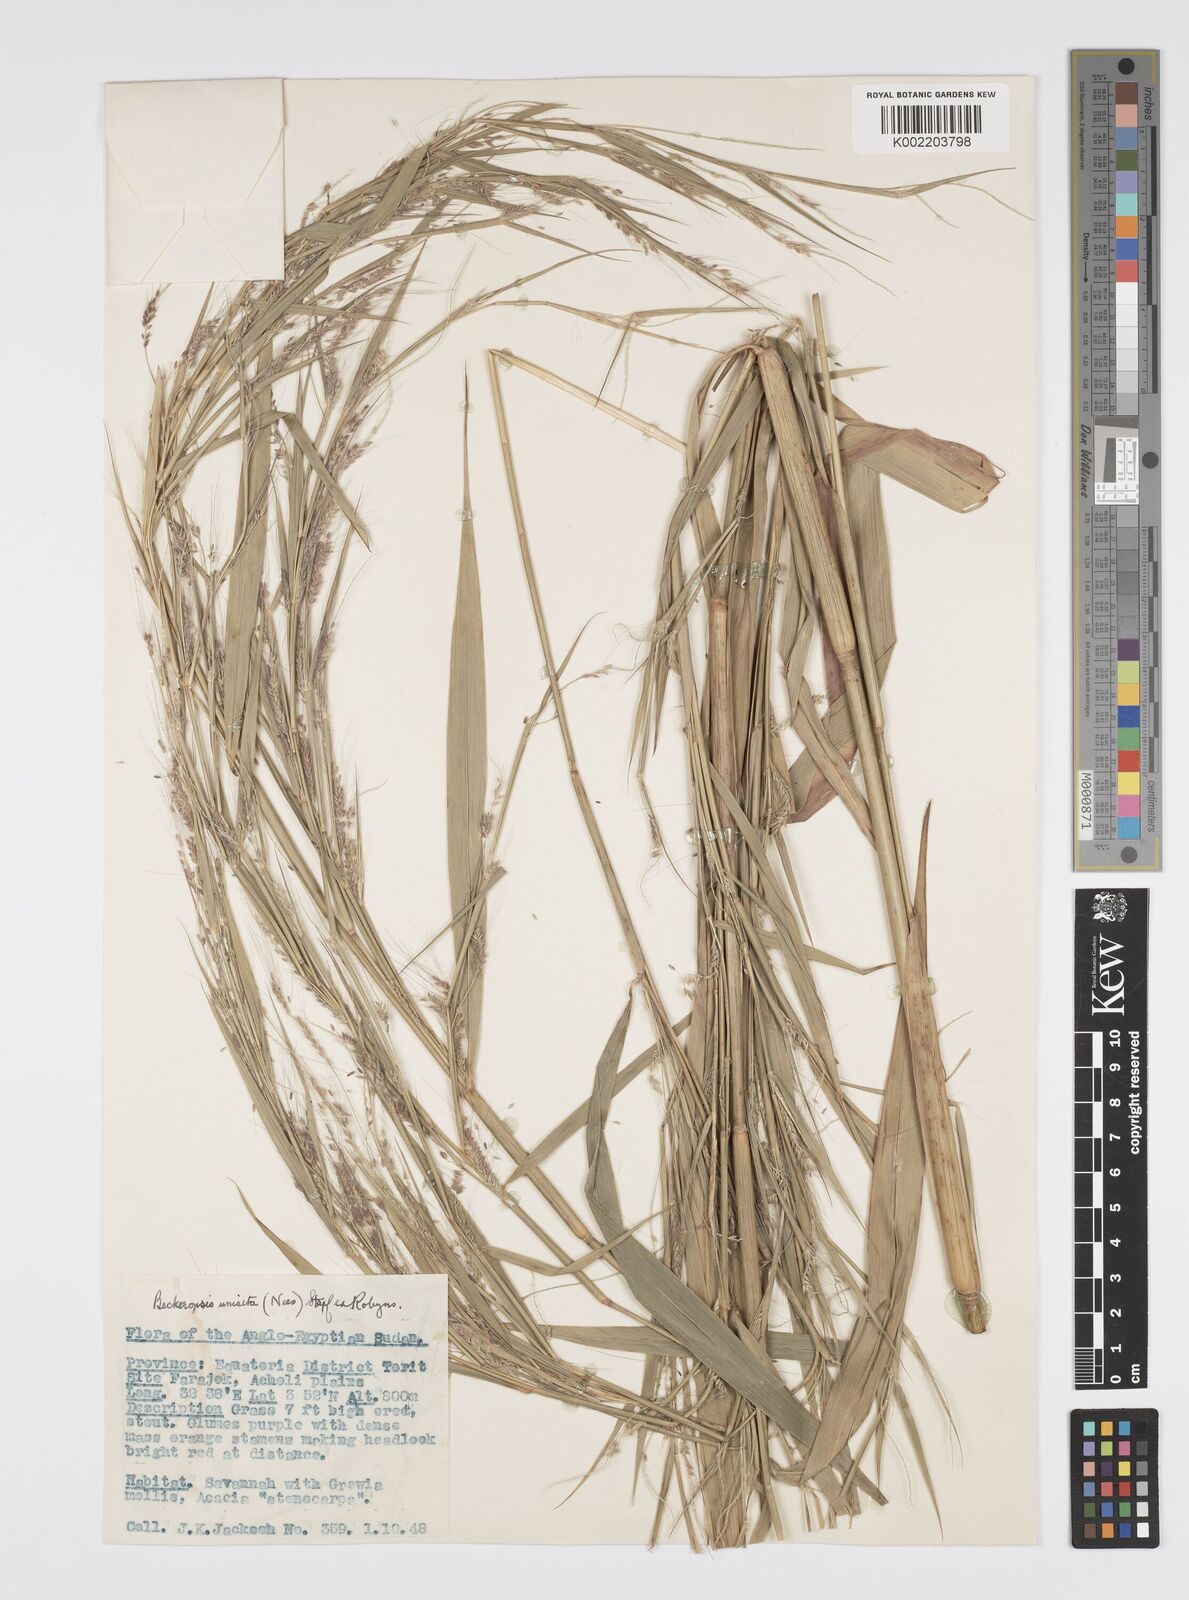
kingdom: Plantae
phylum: Tracheophyta
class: Liliopsida
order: Poales
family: Poaceae
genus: Cenchrus
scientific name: Cenchrus unisetus
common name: Natal grass
